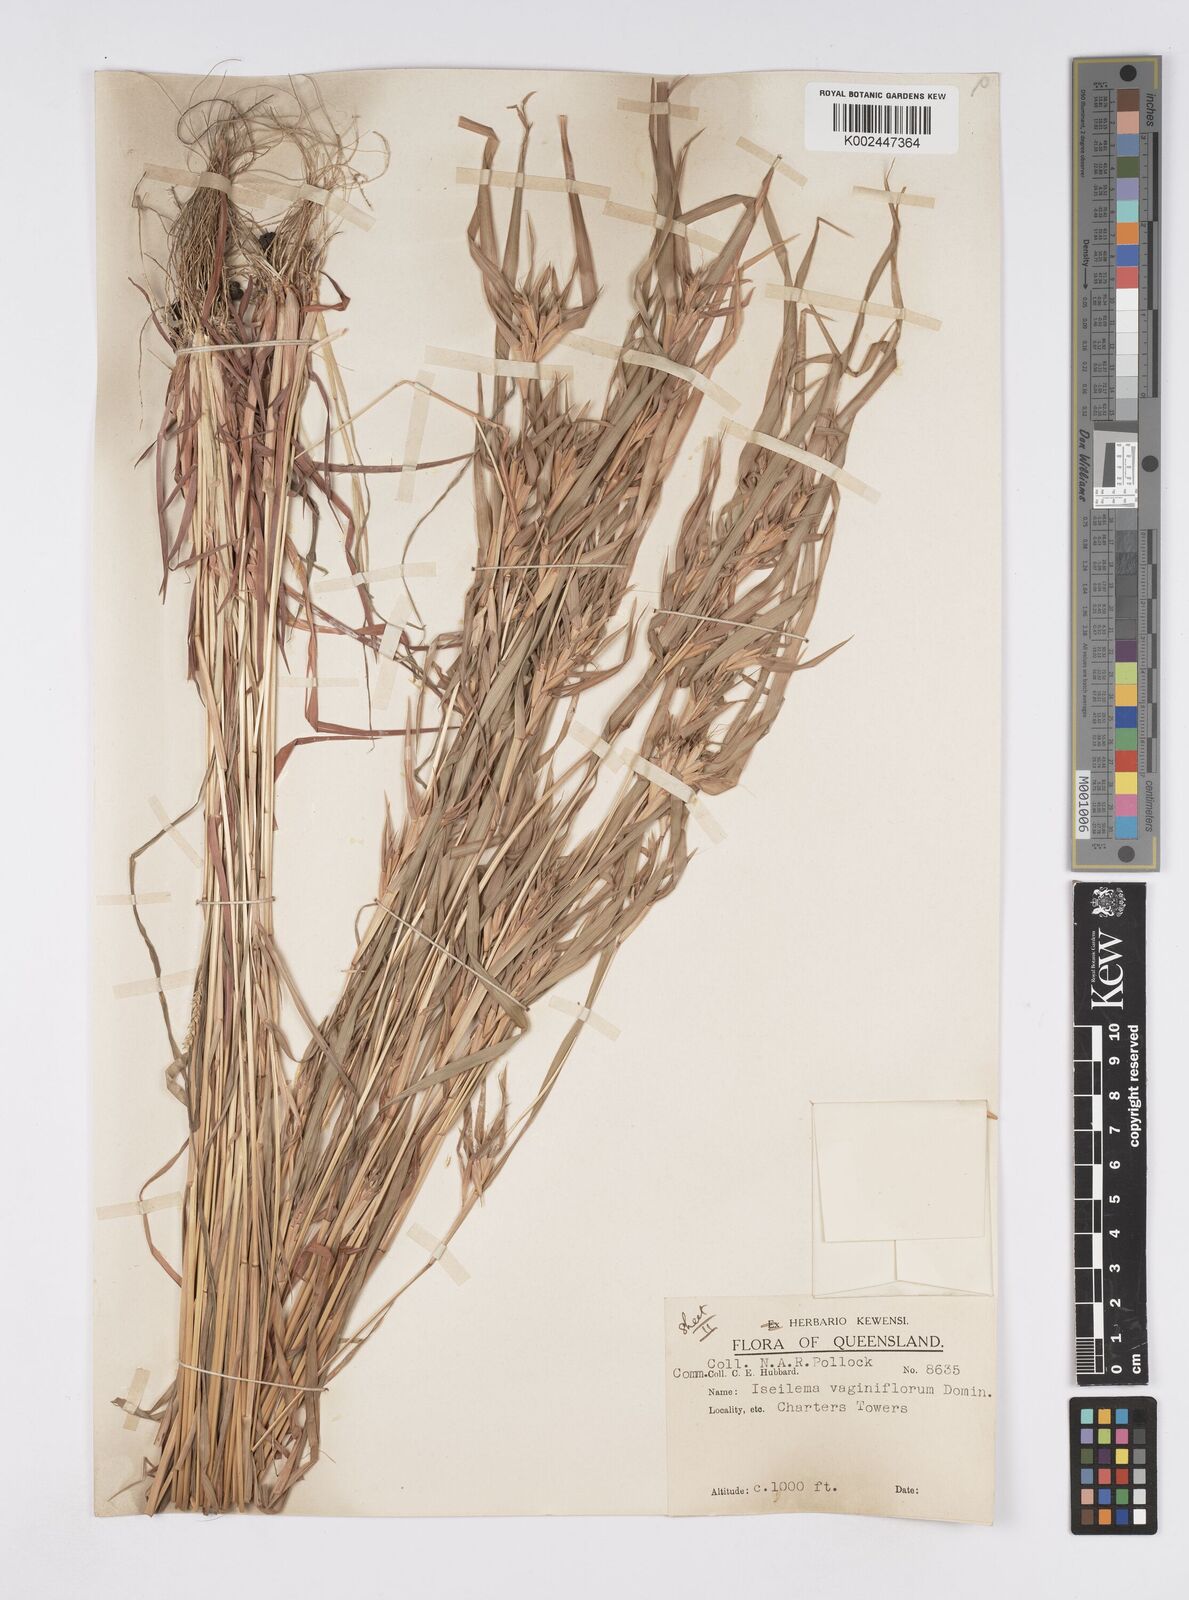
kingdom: Plantae
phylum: Tracheophyta
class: Liliopsida
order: Poales
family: Poaceae
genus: Iseilema
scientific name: Iseilema vaginiflorum
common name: Red flinders grass
